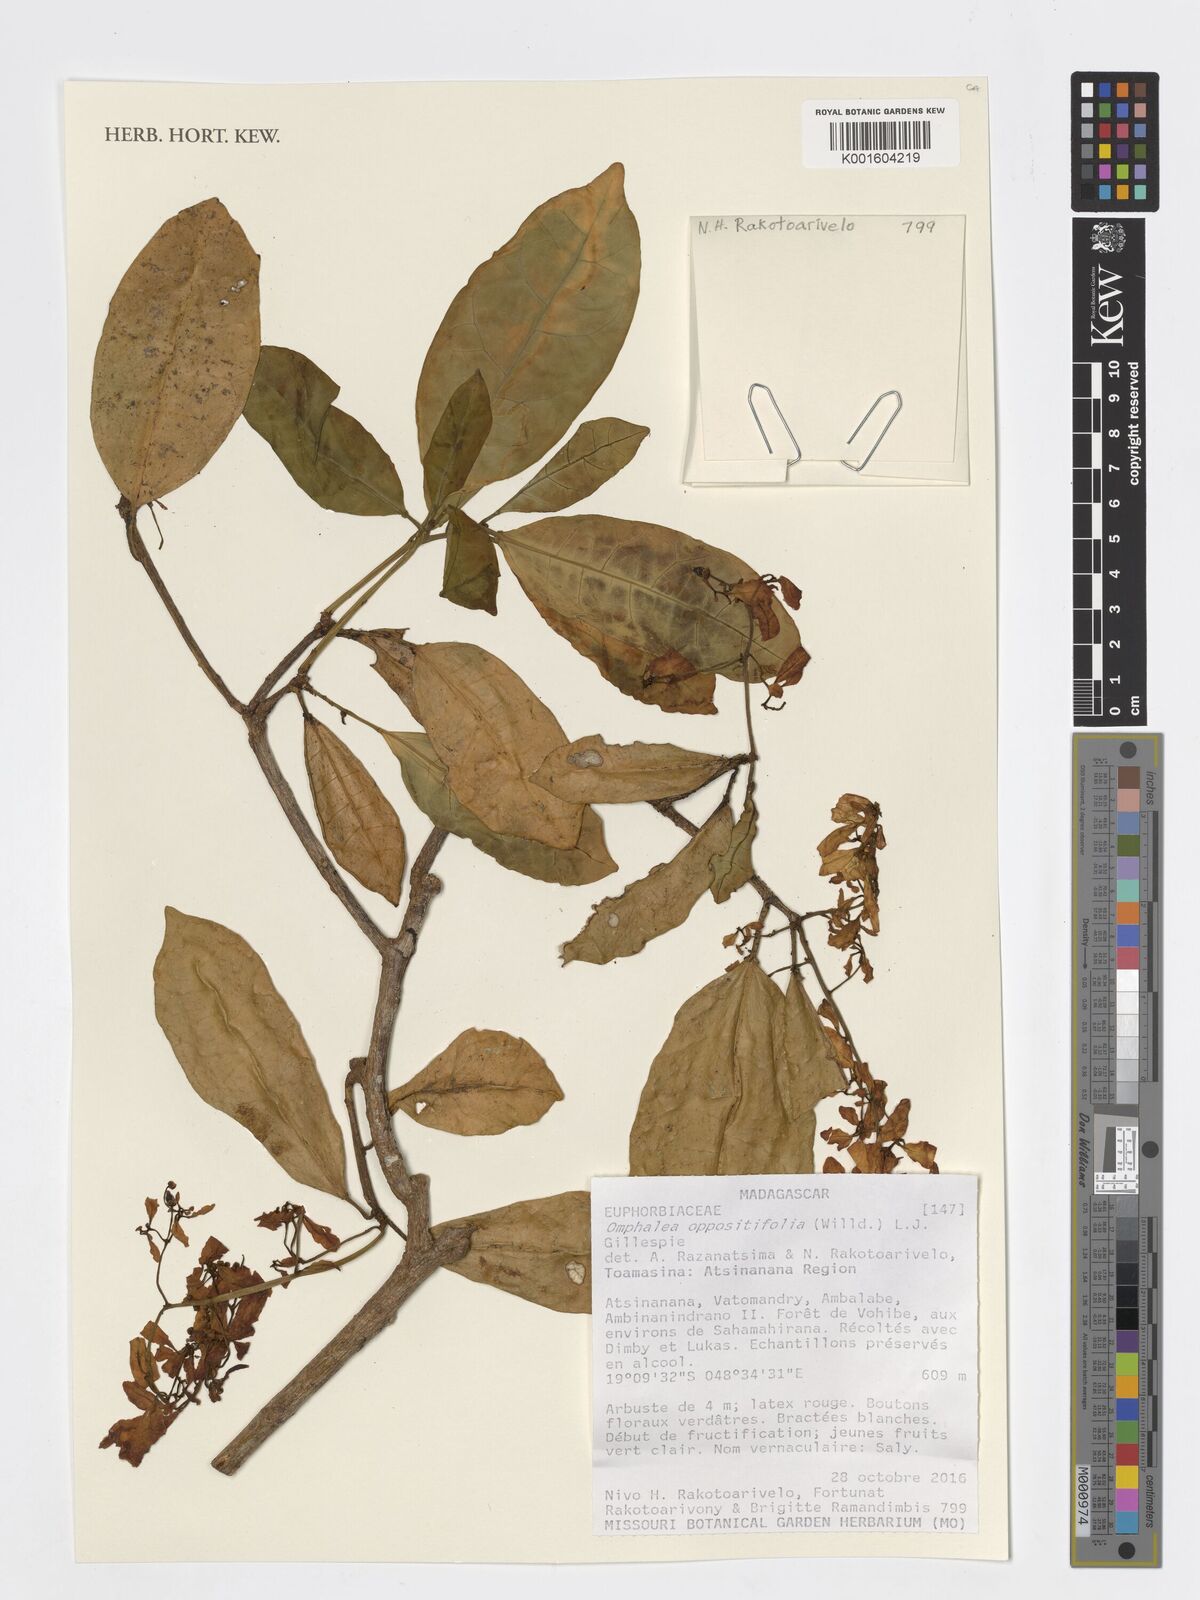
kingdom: Plantae
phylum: Tracheophyta
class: Magnoliopsida
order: Malpighiales
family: Euphorbiaceae
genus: Omphalea
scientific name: Omphalea oppositifolia
